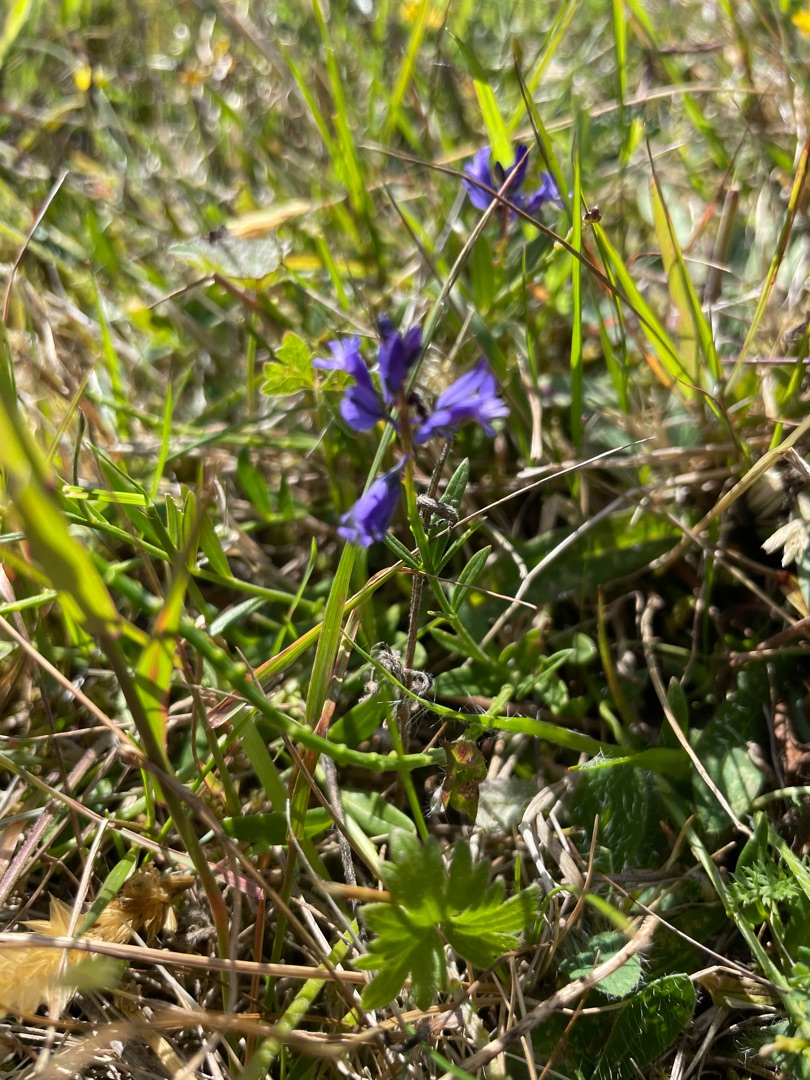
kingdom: Plantae
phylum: Tracheophyta
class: Magnoliopsida
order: Fabales
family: Polygalaceae
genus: Polygala
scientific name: Polygala serpyllifolia
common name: Spæd mælkeurt
